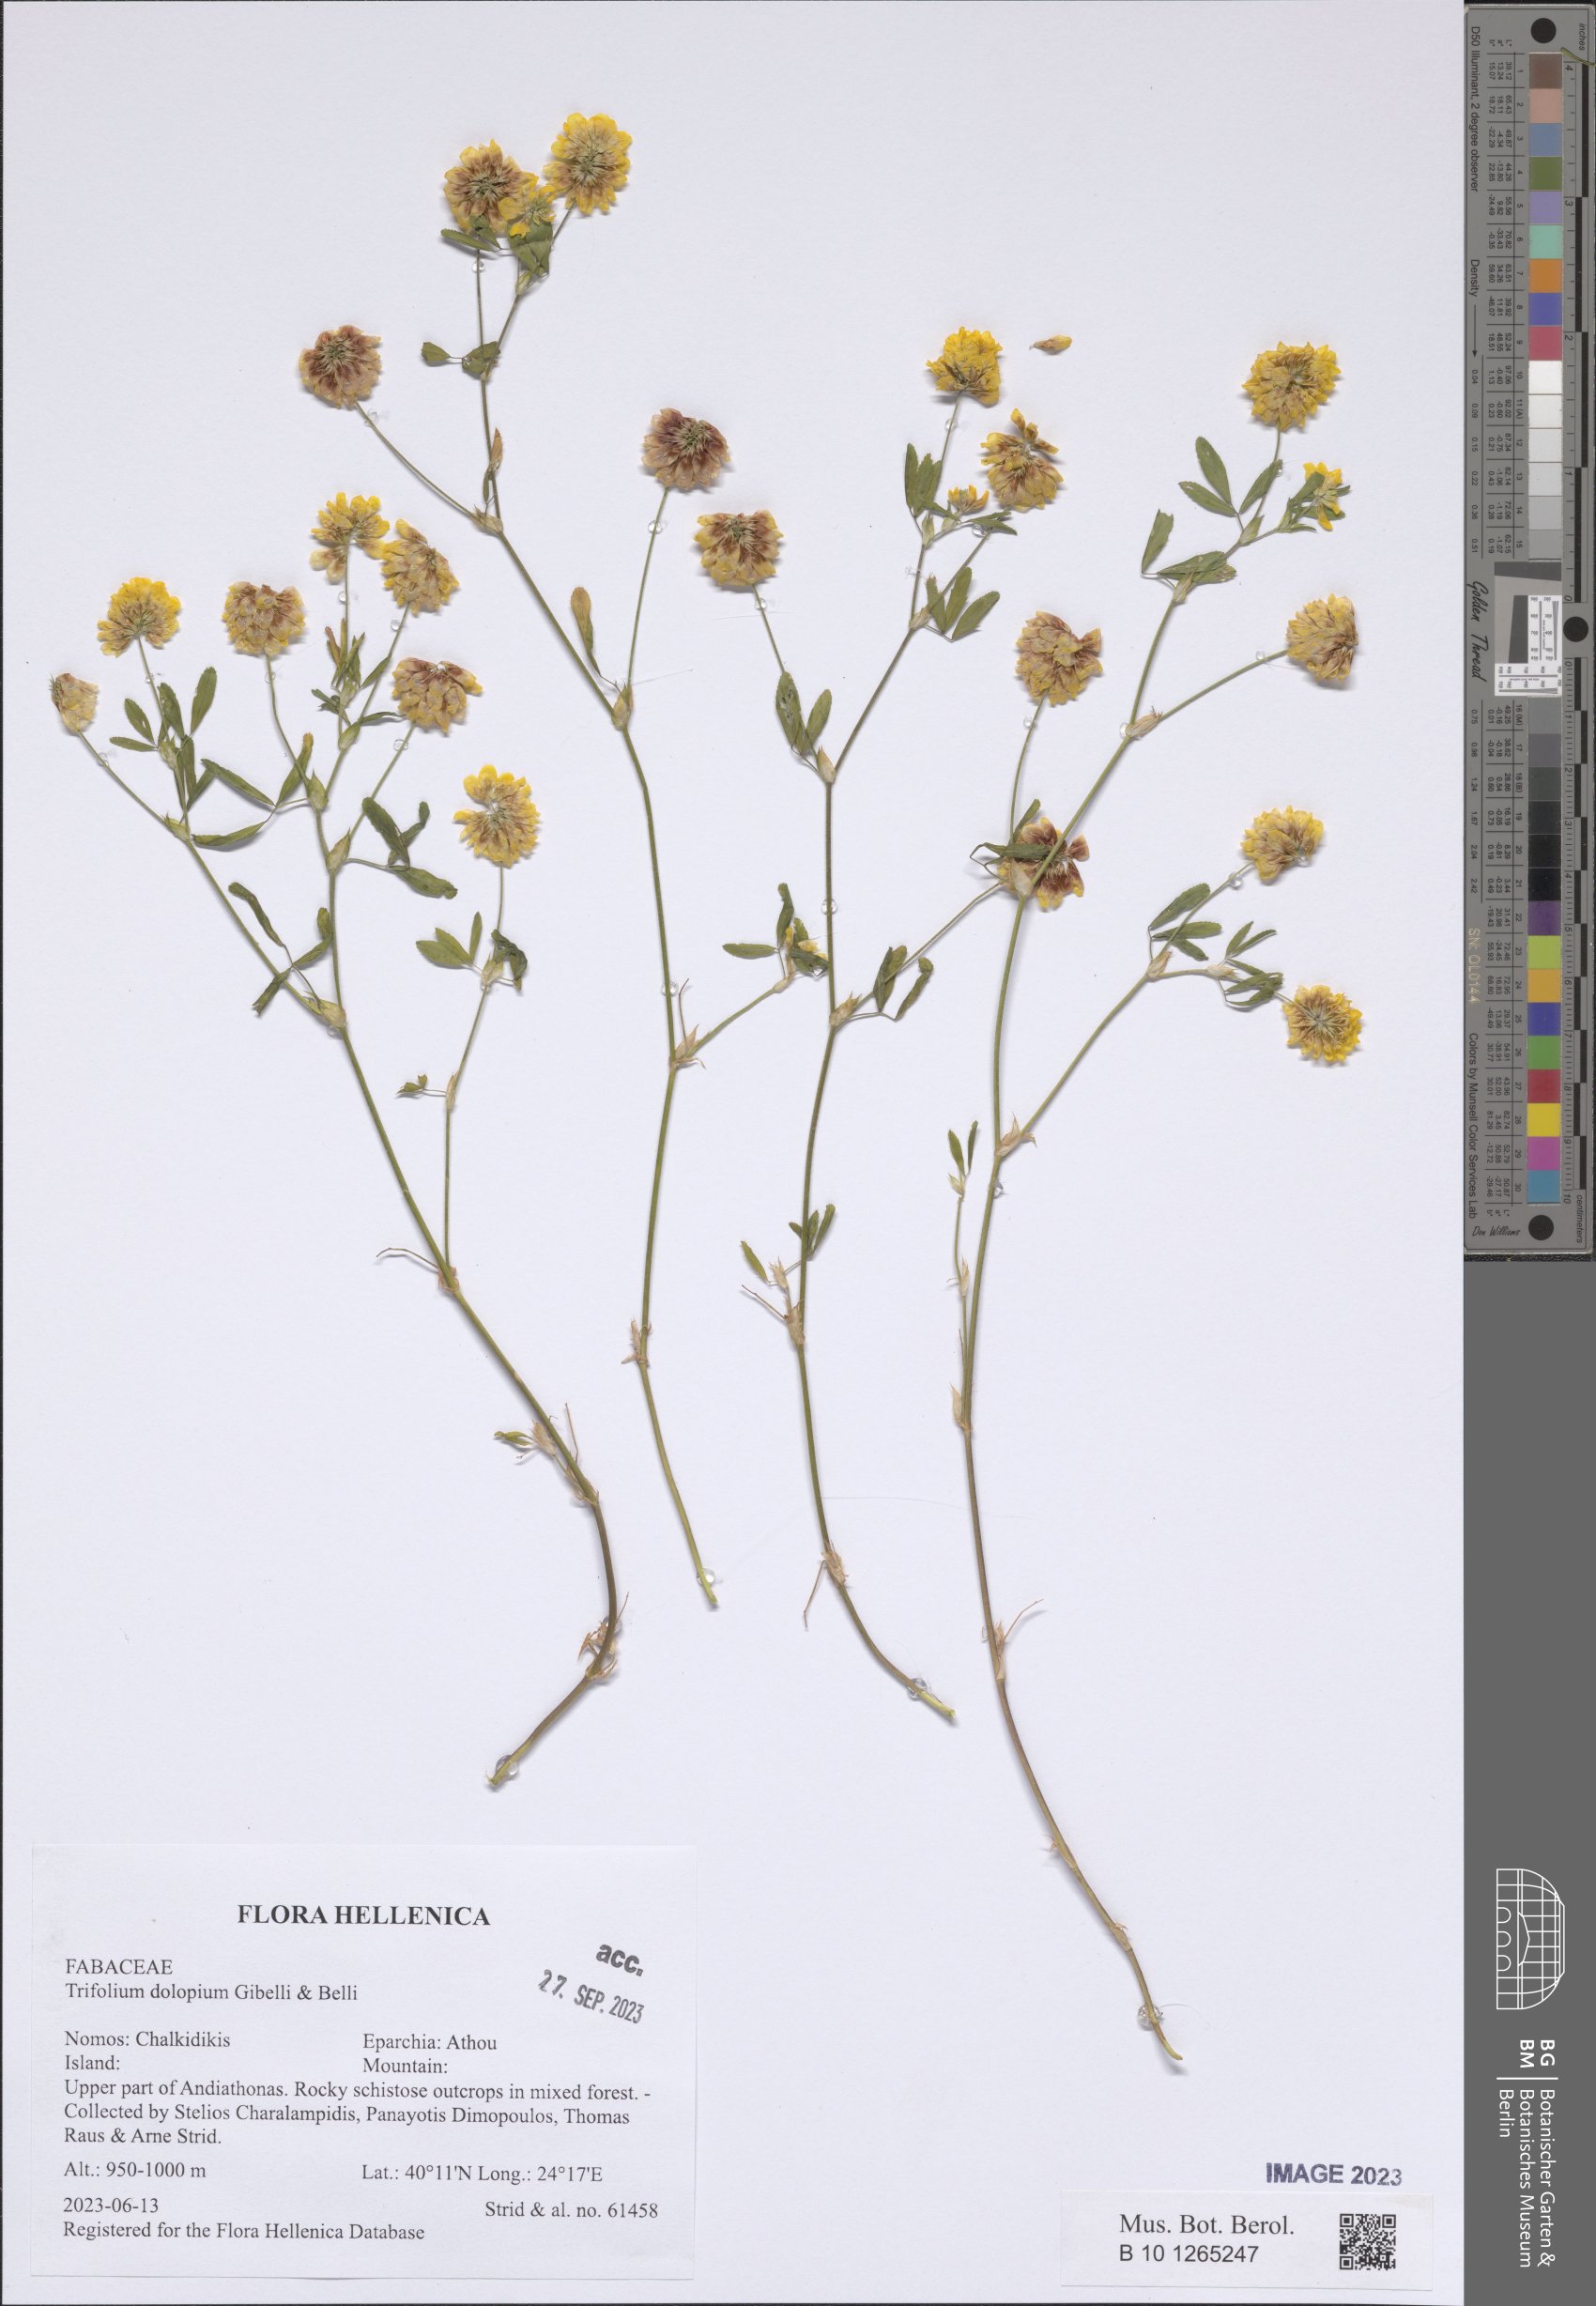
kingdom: Plantae
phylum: Tracheophyta
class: Magnoliopsida
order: Fabales
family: Fabaceae
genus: Trifolium
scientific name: Trifolium dolopium
